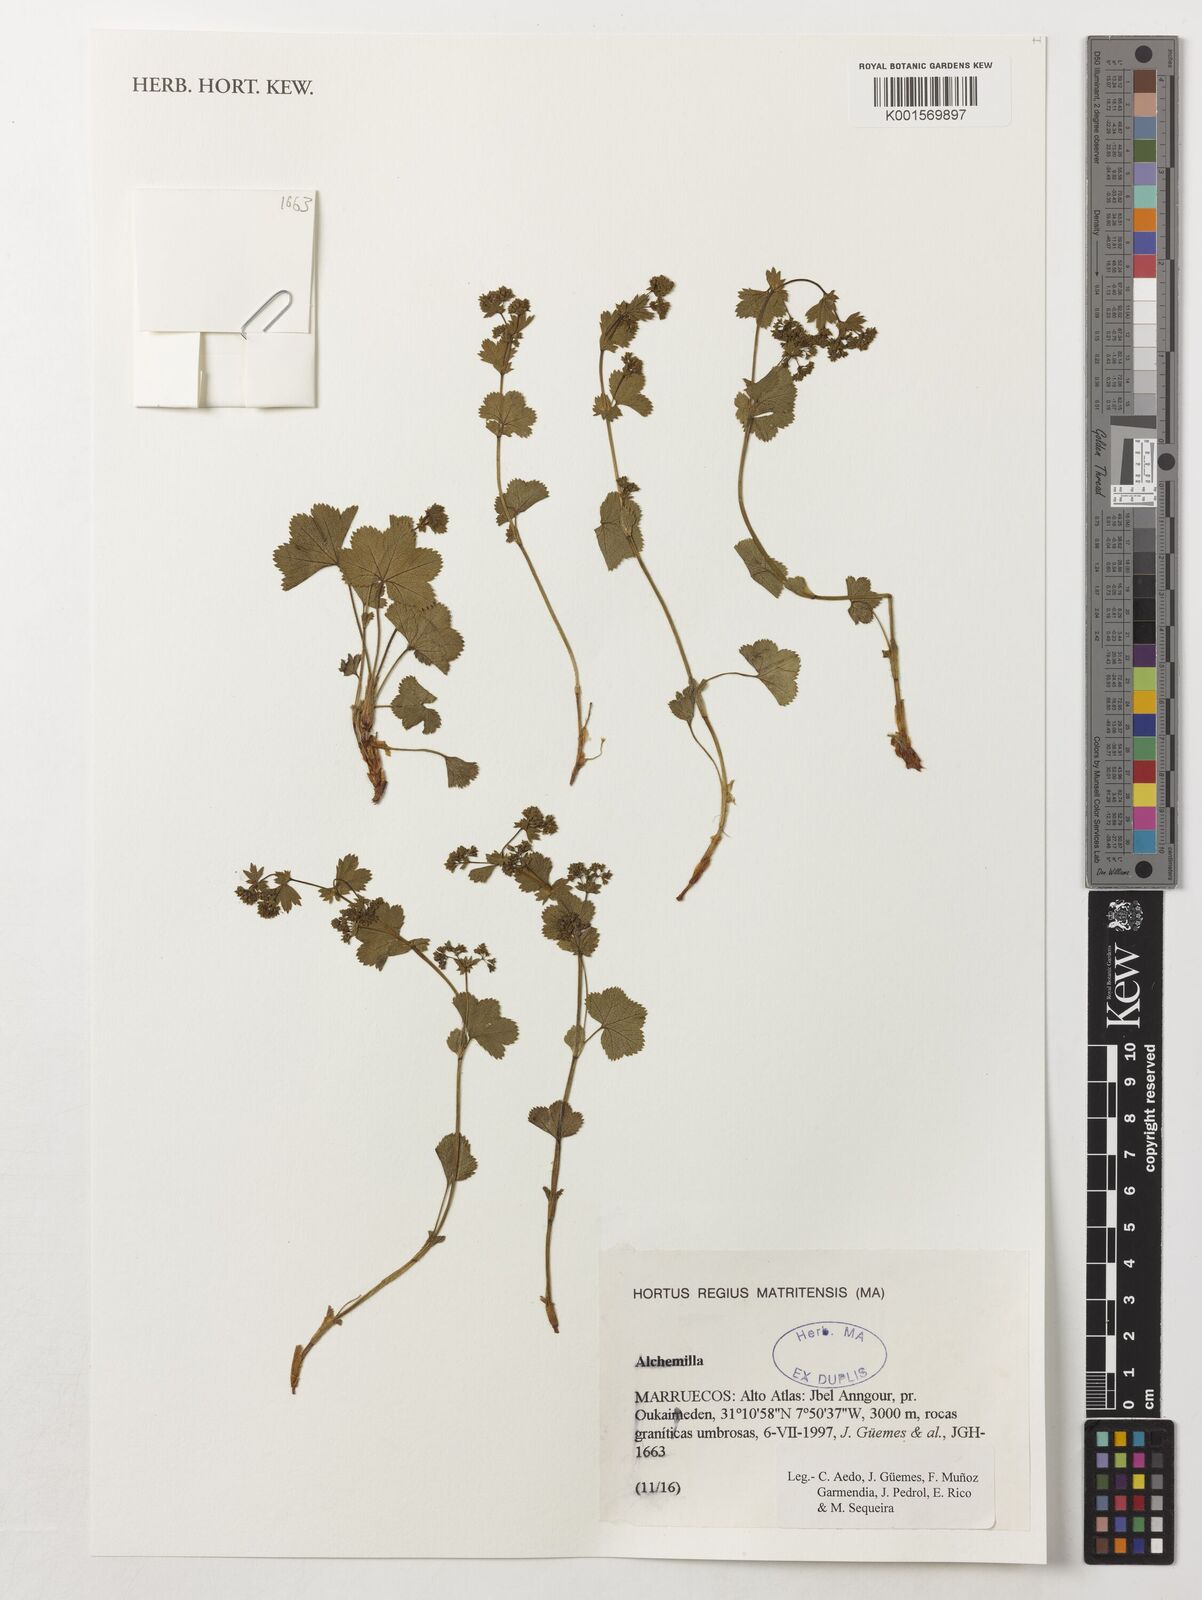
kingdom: Plantae
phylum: Tracheophyta
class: Magnoliopsida
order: Rosales
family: Rosaceae
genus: Alchemilla
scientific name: Alchemilla
